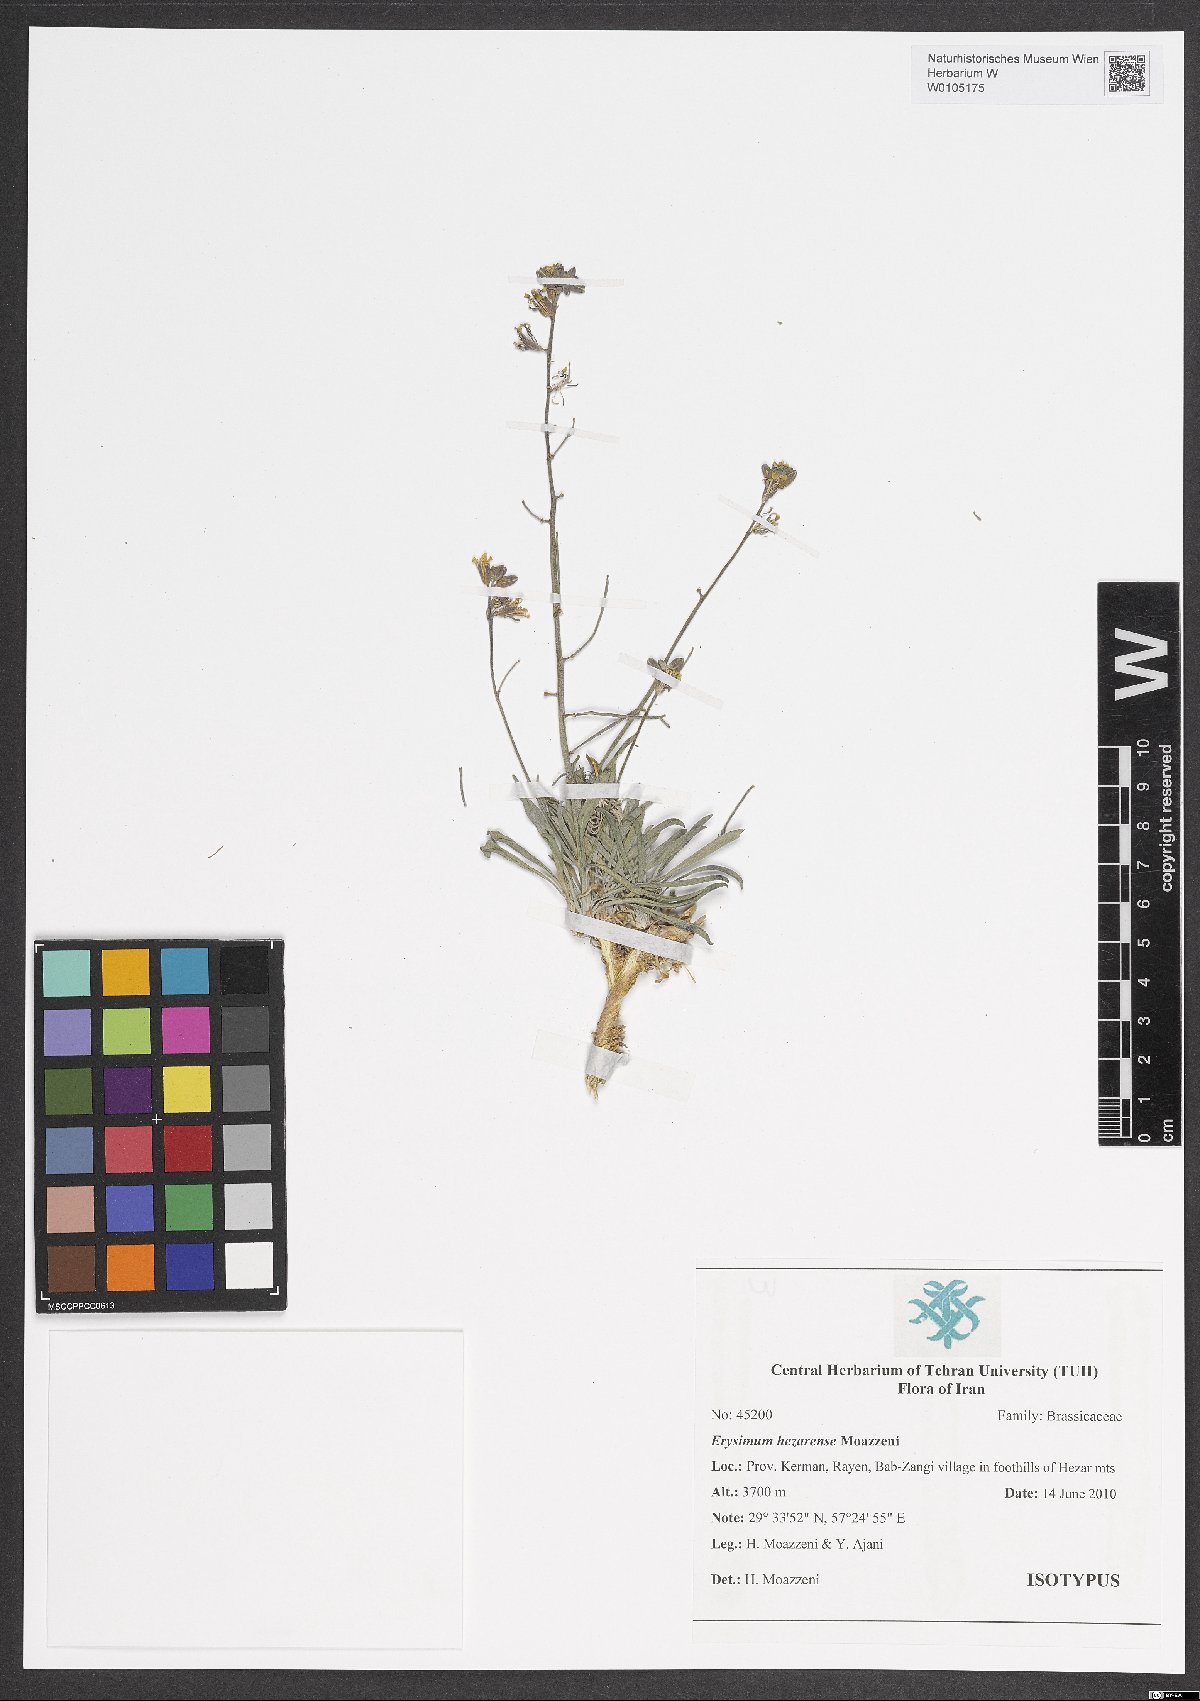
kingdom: Plantae
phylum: Tracheophyta
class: Magnoliopsida
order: Brassicales
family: Brassicaceae
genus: Erysimum
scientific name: Erysimum hezarense
